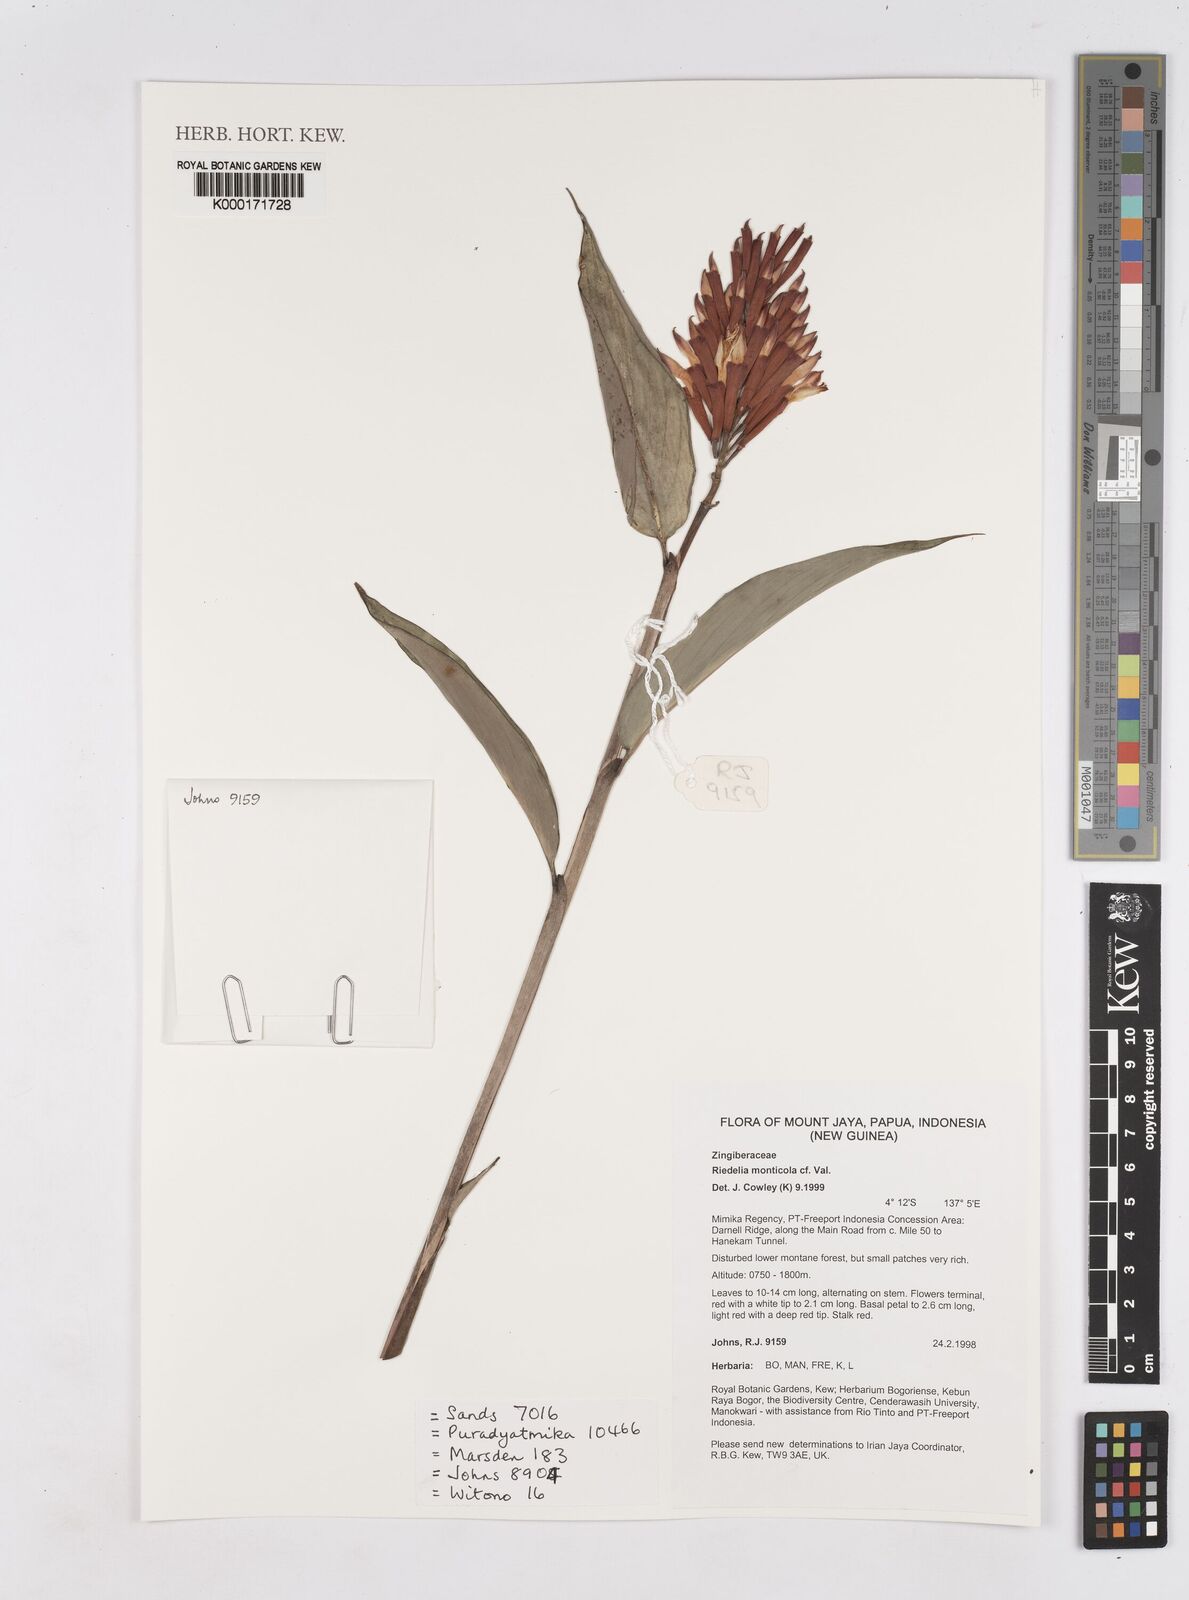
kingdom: Plantae
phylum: Tracheophyta
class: Liliopsida
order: Zingiberales
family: Zingiberaceae
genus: Riedelia
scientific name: Riedelia monticola
